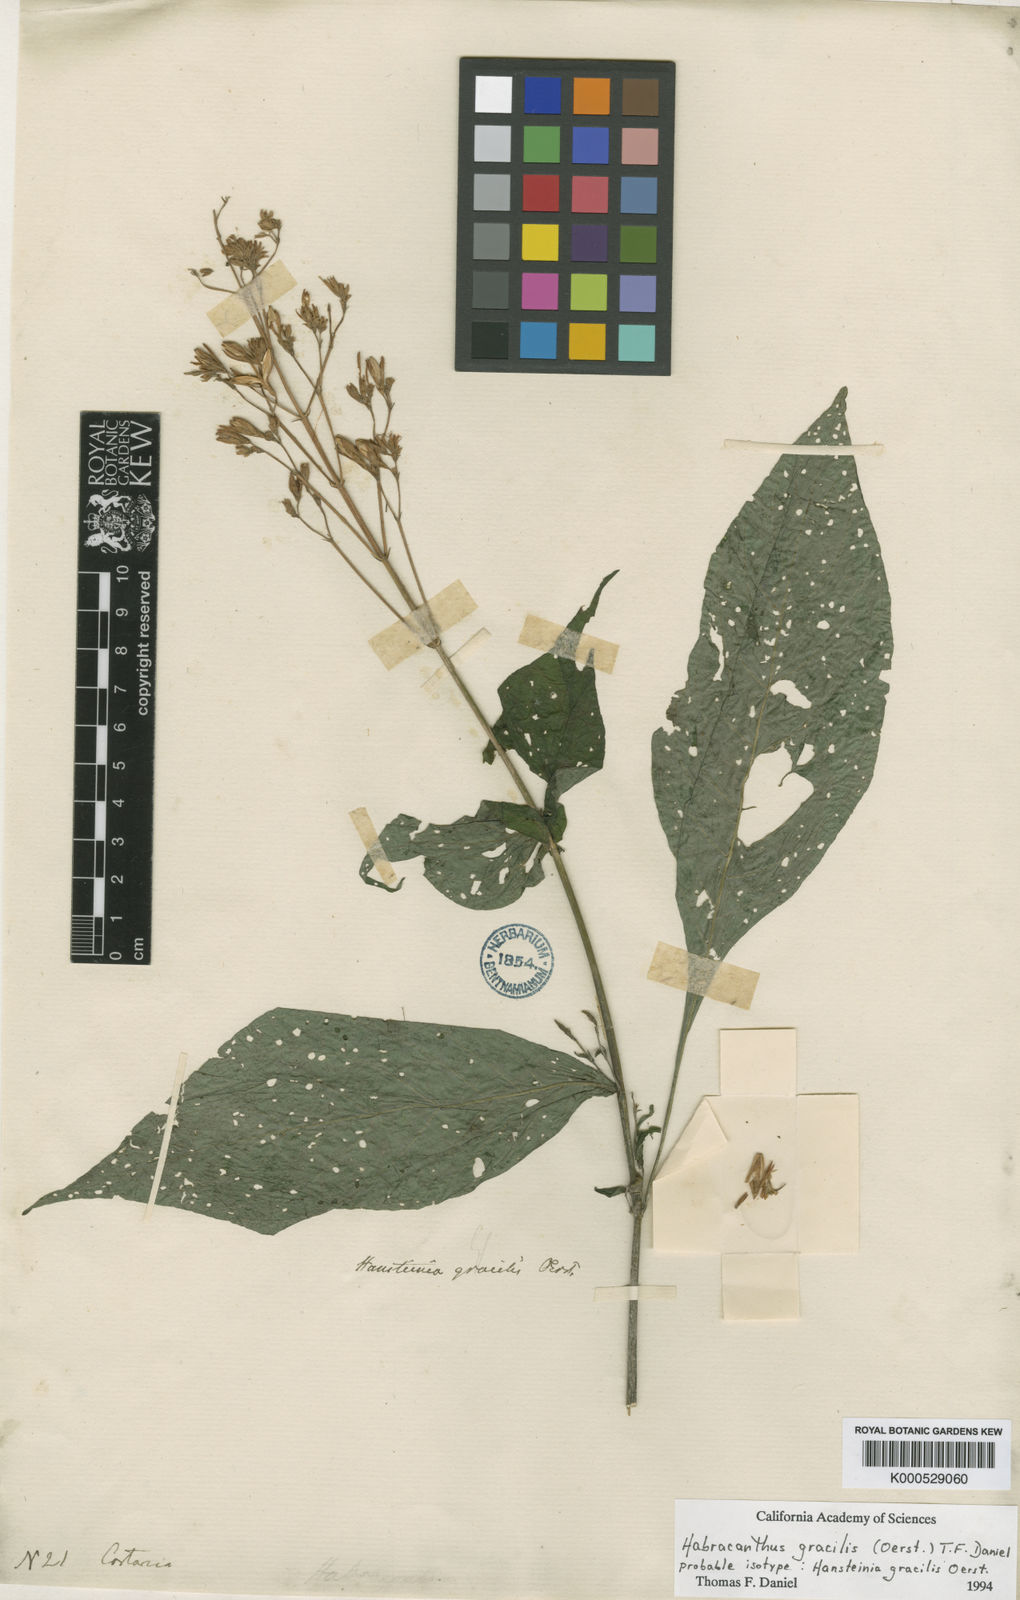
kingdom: Plantae
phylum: Tracheophyta
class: Magnoliopsida
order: Lamiales
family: Acanthaceae
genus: Stenostephanus
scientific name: Stenostephanus gracilis
